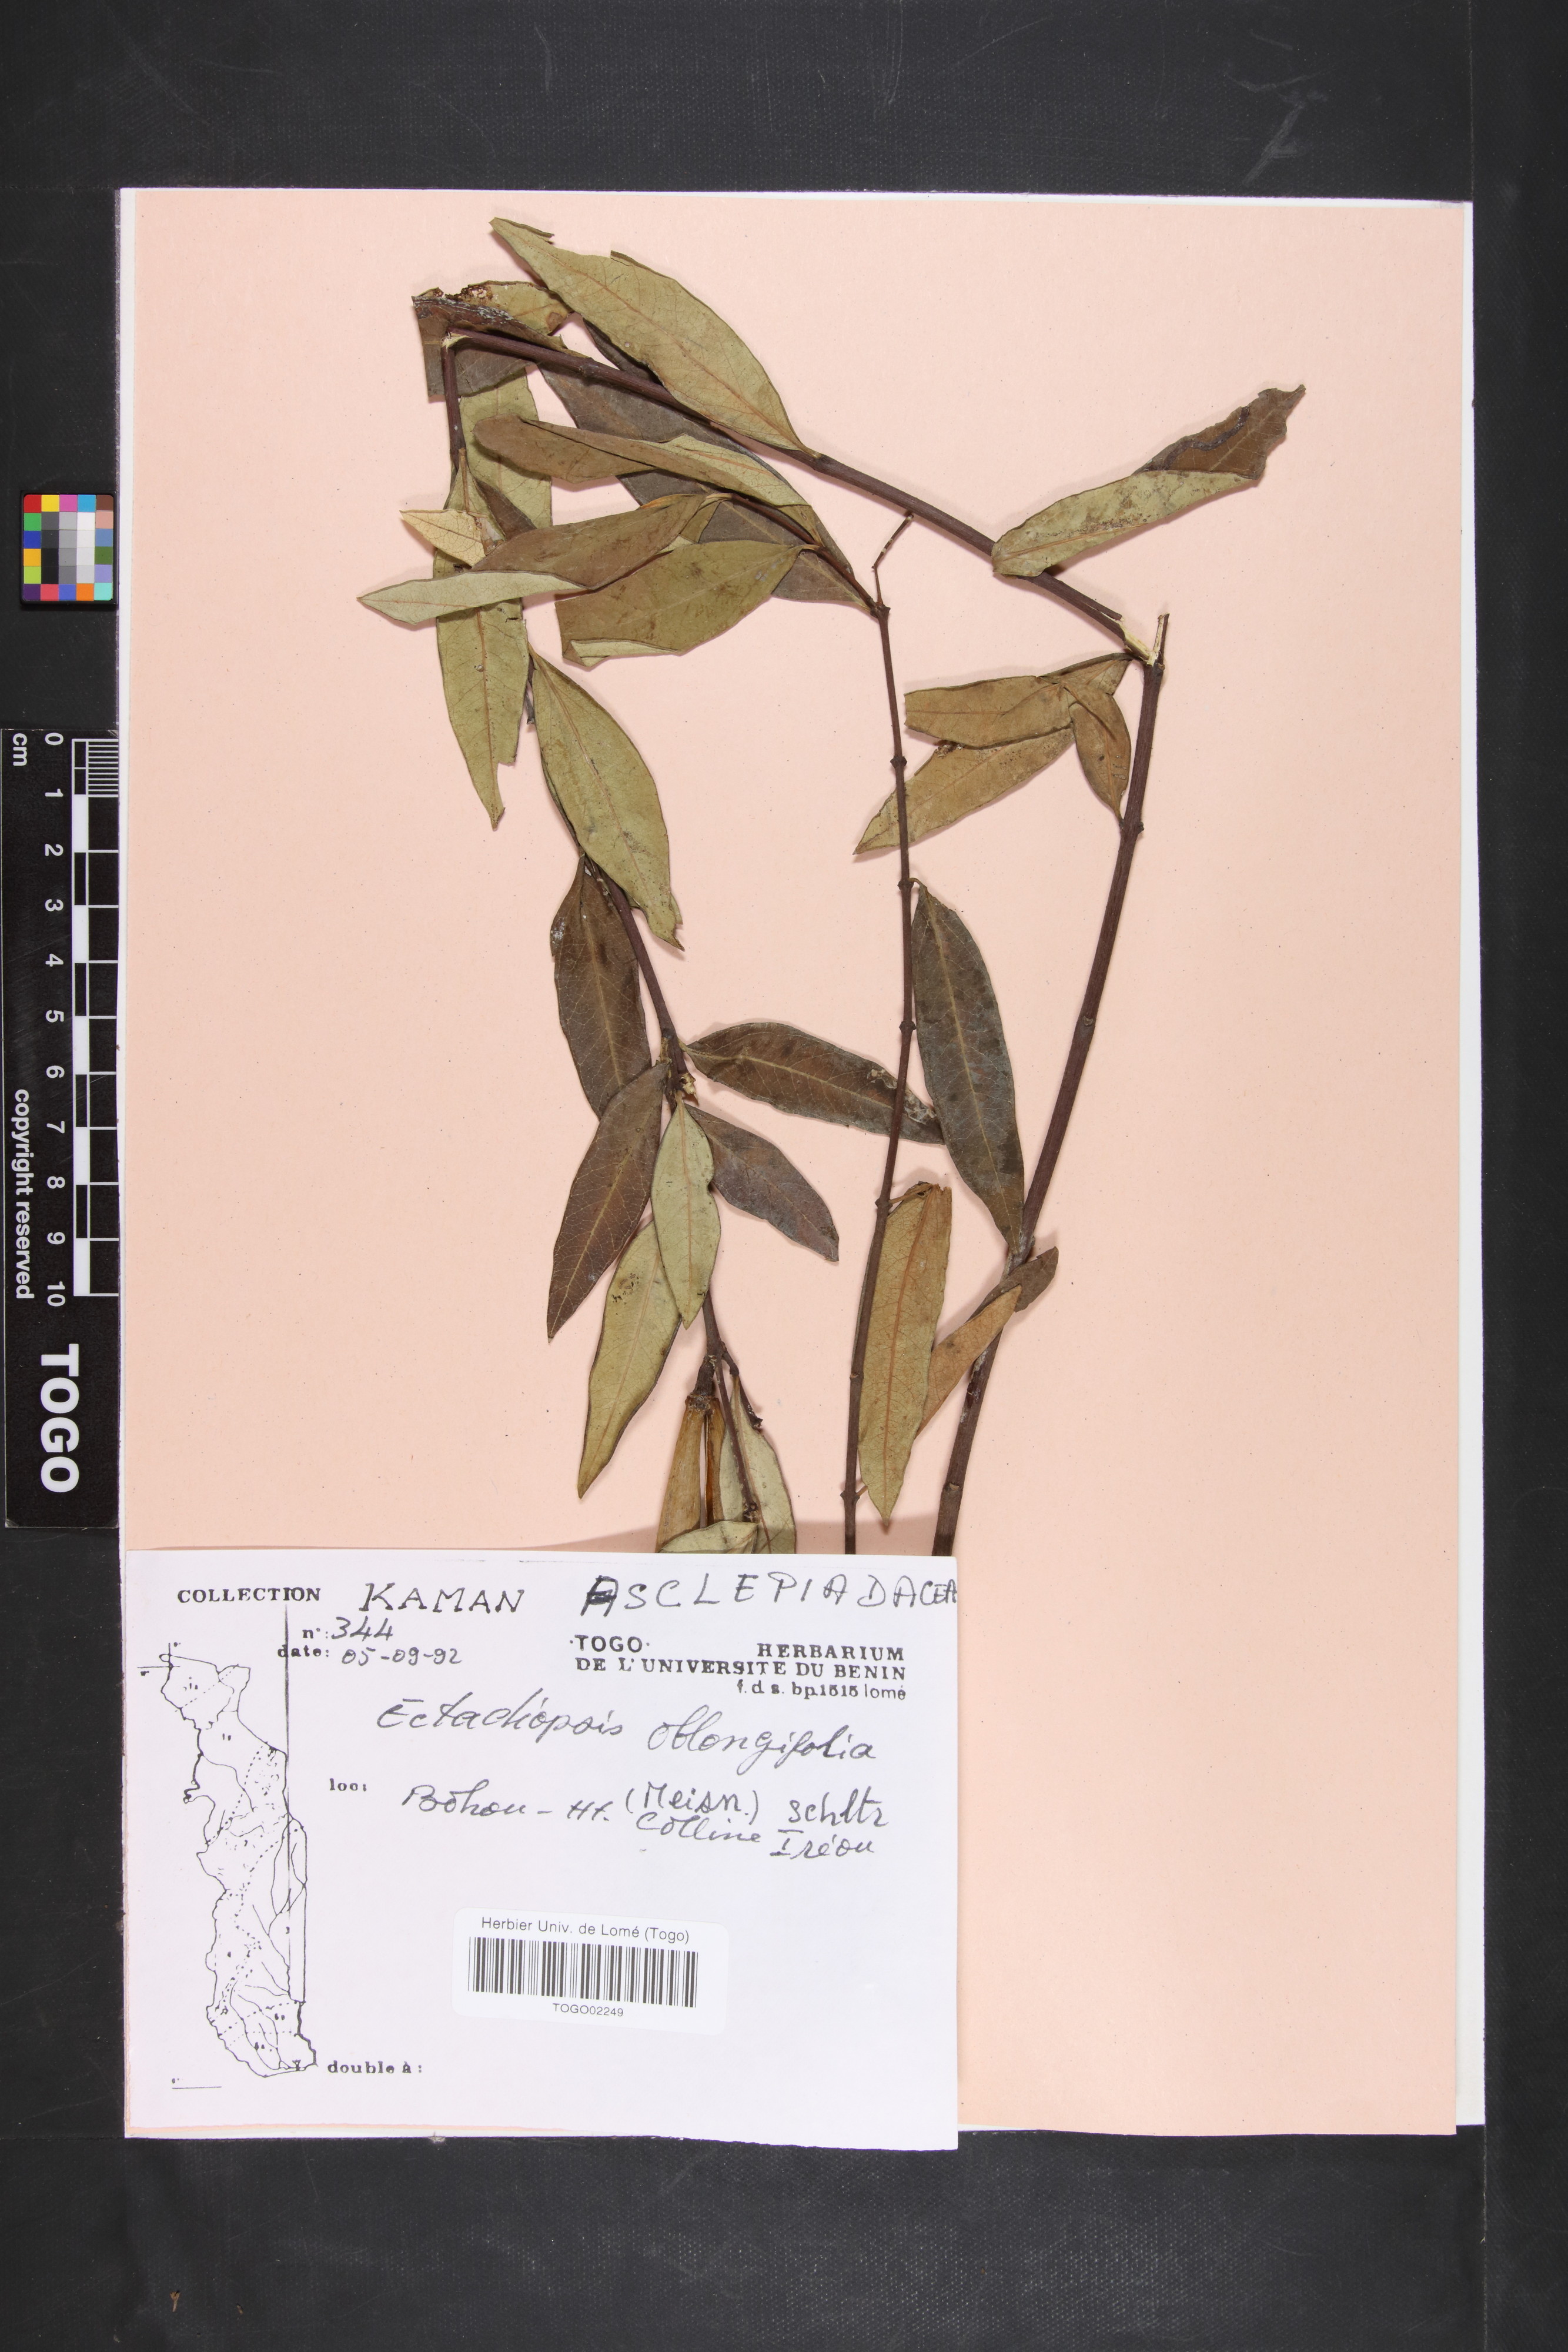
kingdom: Plantae
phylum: Tracheophyta
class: Magnoliopsida
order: Gentianales
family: Apocynaceae
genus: Cryptolepis
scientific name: Cryptolepis oblongifolia
